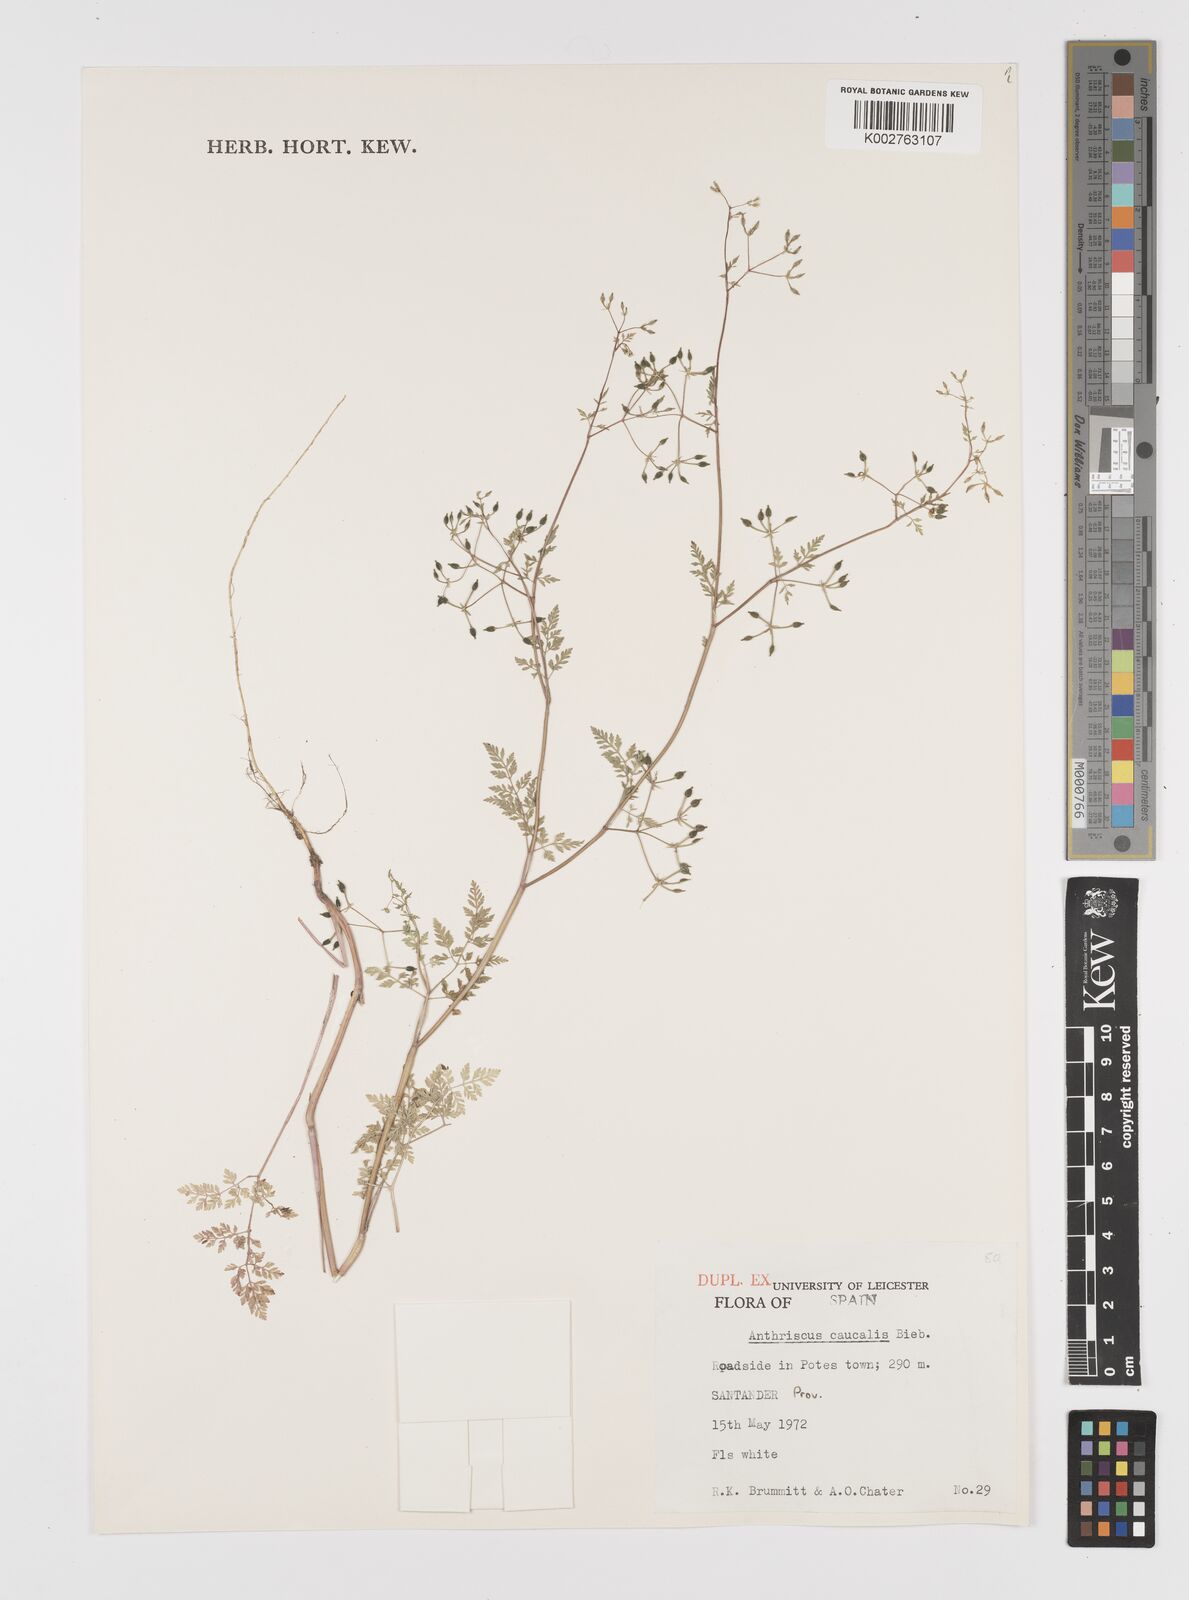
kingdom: Plantae
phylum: Tracheophyta
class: Magnoliopsida
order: Apiales
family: Apiaceae
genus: Anthriscus
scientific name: Anthriscus caucalis
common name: Bur chervil
